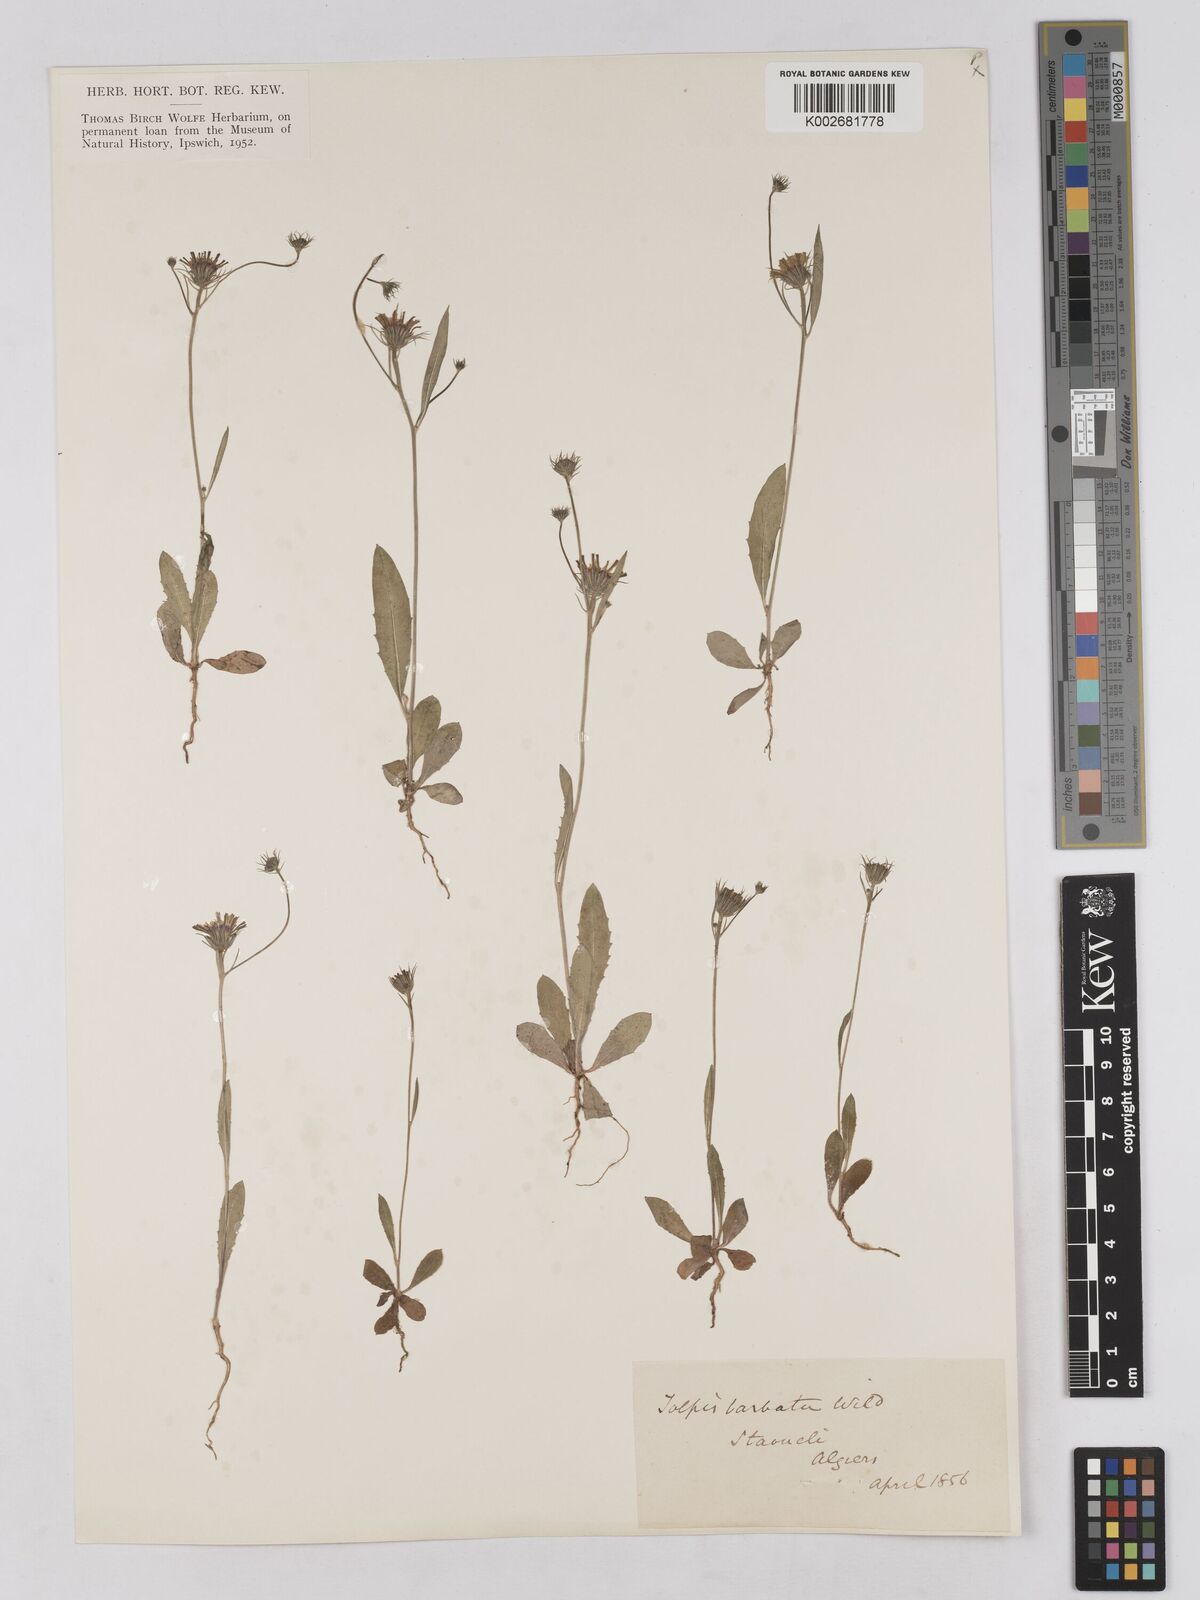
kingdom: Plantae
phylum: Tracheophyta
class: Magnoliopsida
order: Asterales
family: Asteraceae
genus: Tolpis
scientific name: Tolpis barbata
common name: Yellow hawkweed
